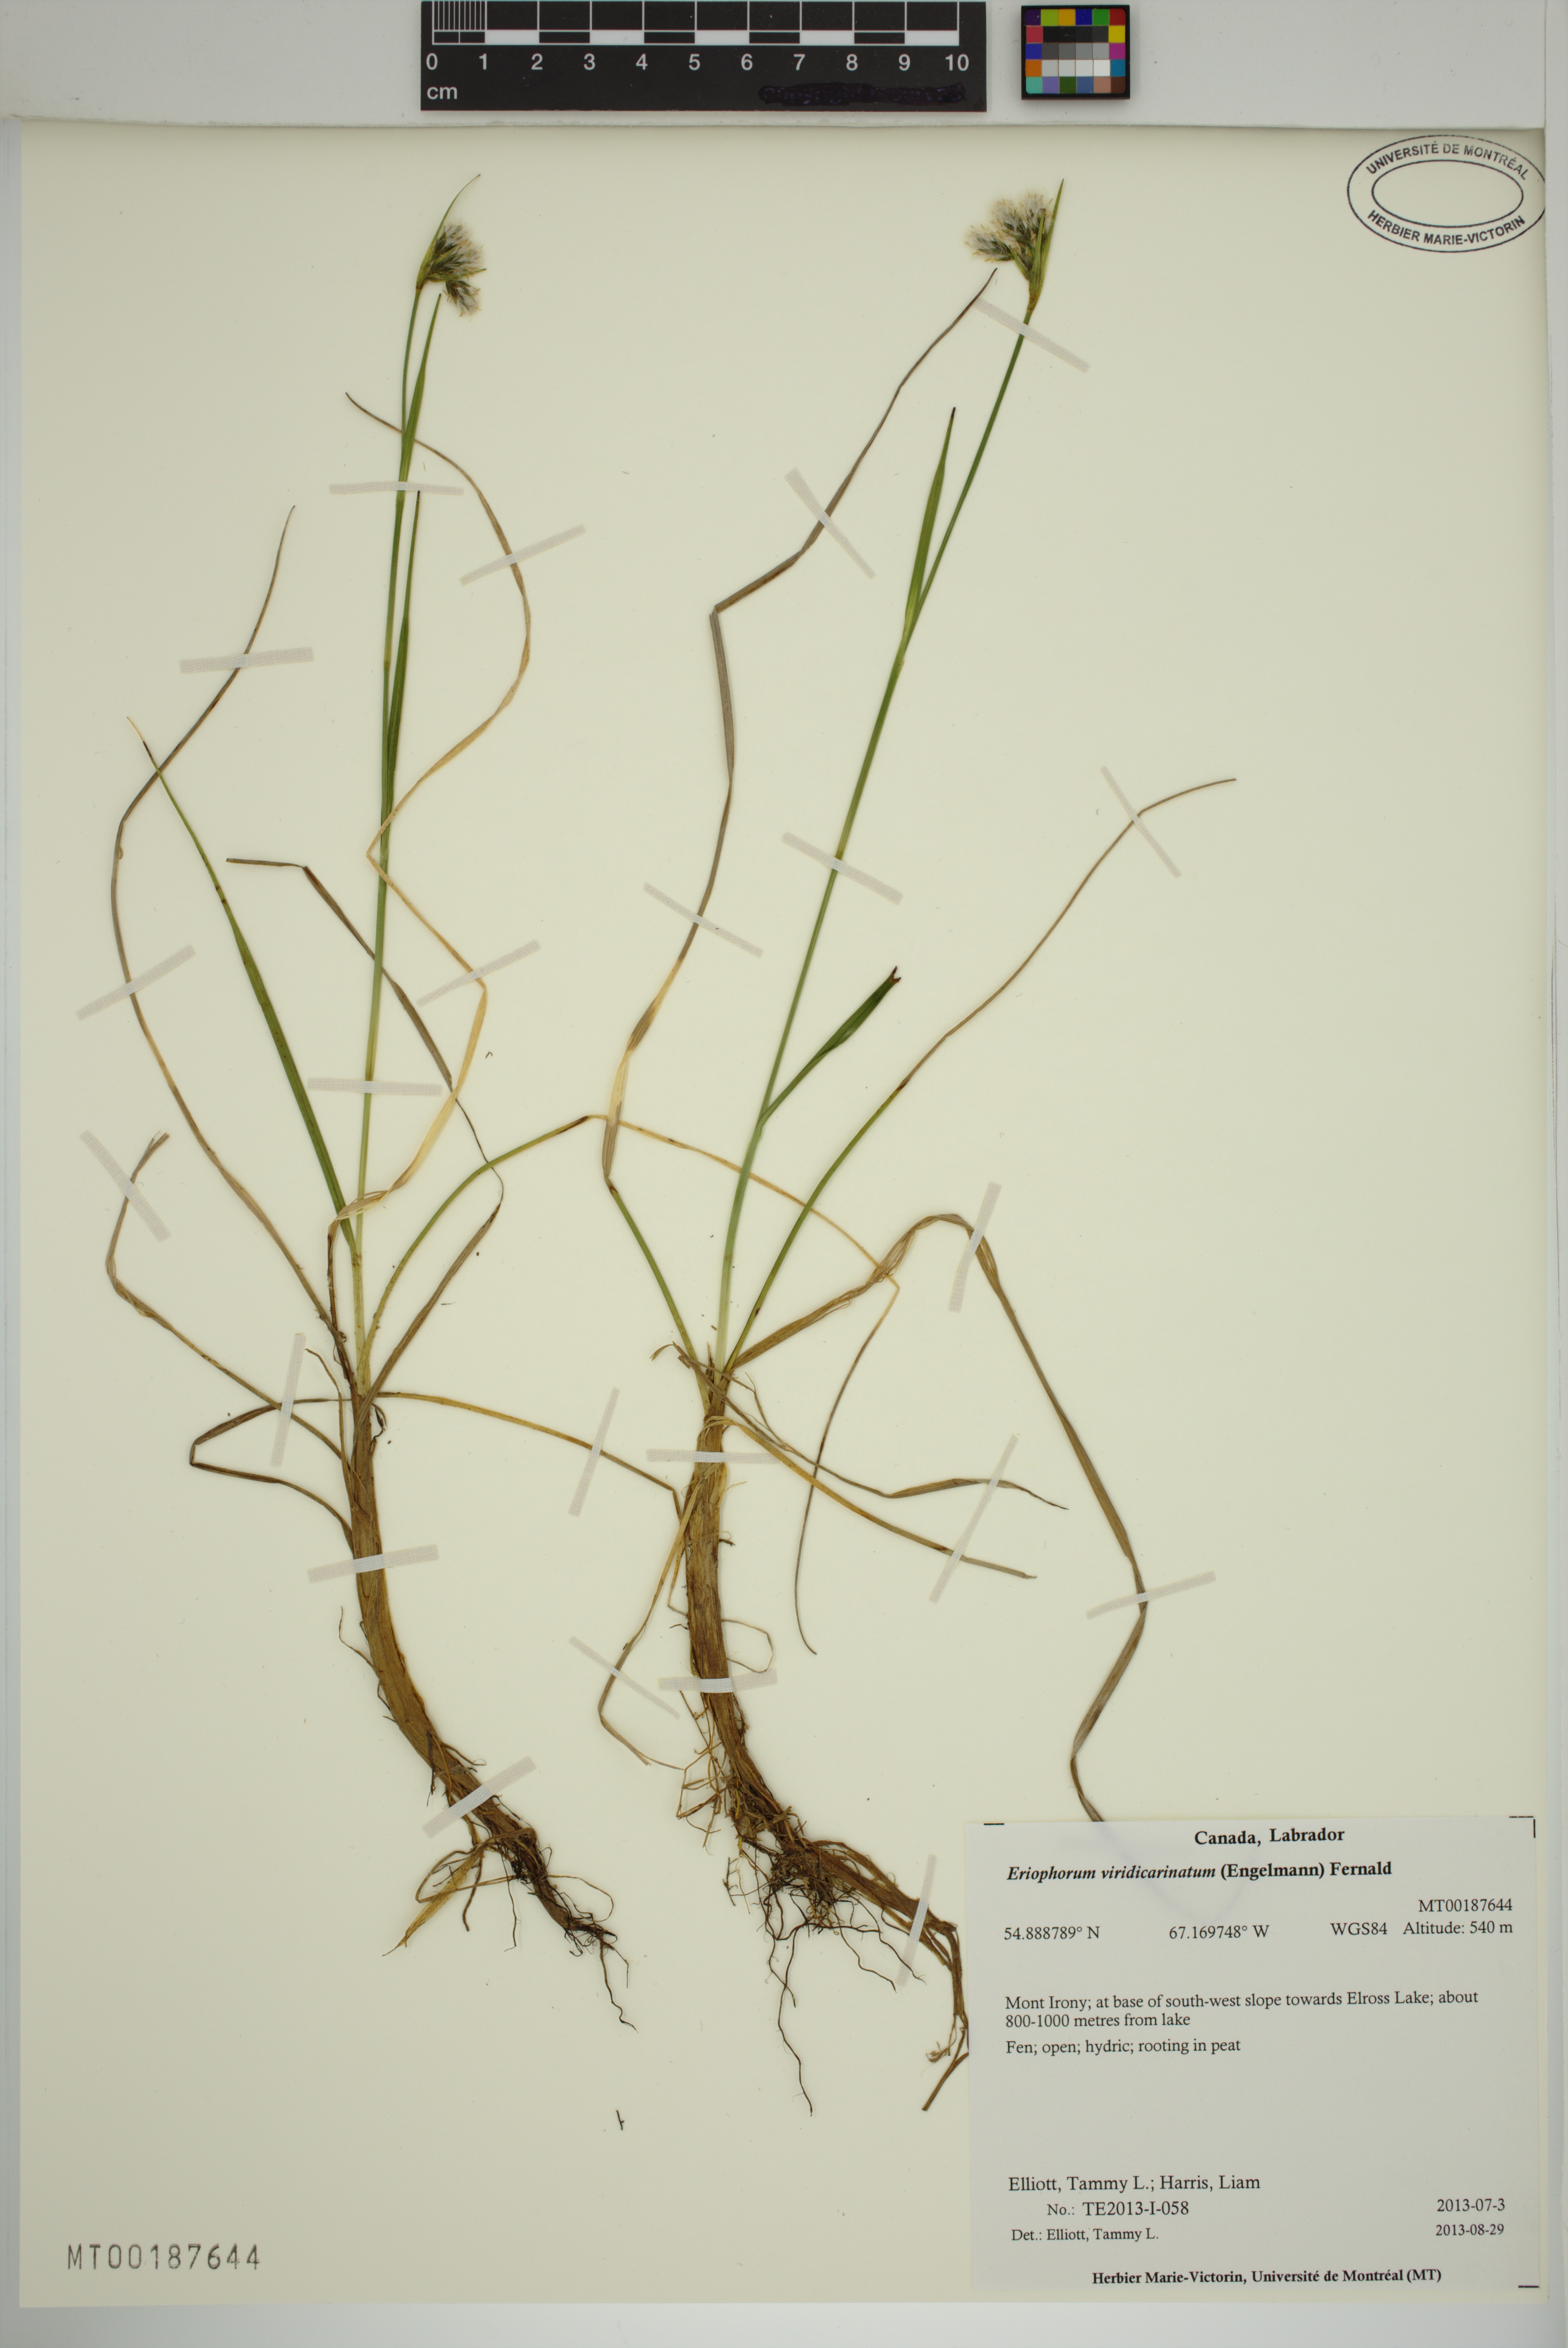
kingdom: Plantae
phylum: Tracheophyta
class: Liliopsida
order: Poales
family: Cyperaceae
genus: Eriophorum
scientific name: Eriophorum viridicarinatum
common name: Green-keeled cottongrass
